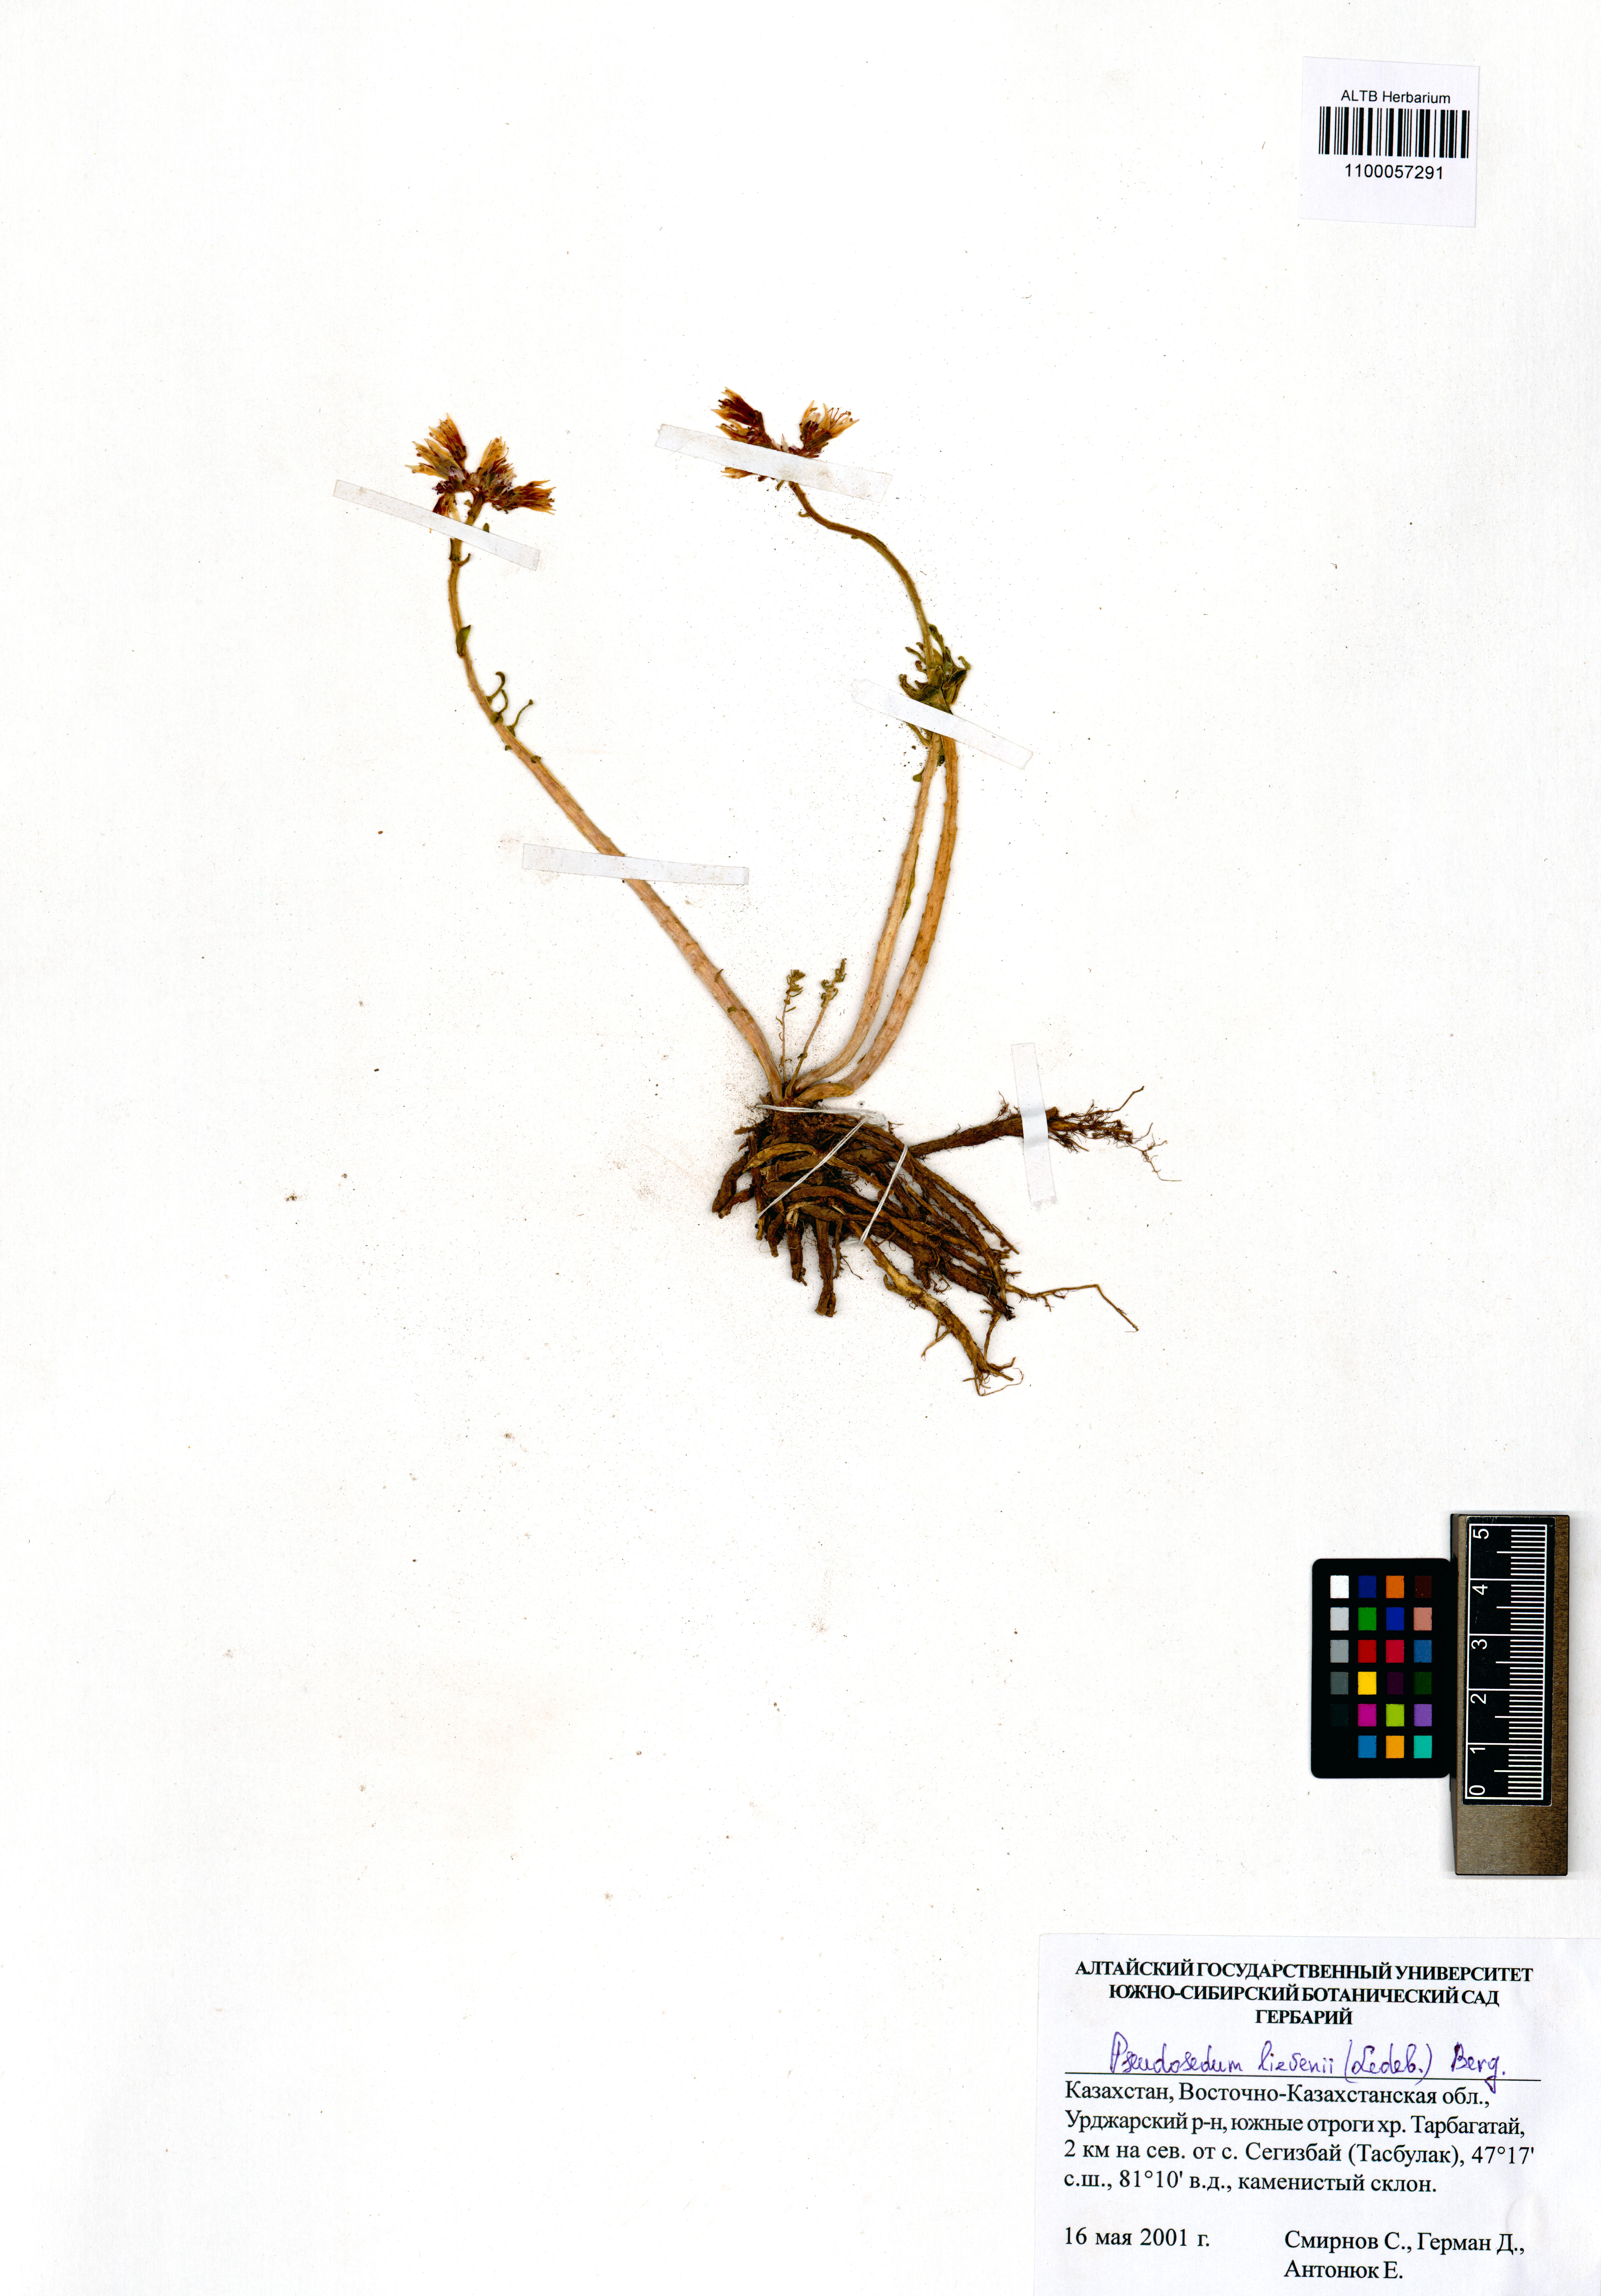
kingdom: Plantae
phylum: Tracheophyta
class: Magnoliopsida
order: Saxifragales
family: Crassulaceae
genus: Pseudosedum
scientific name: Pseudosedum lievenii
